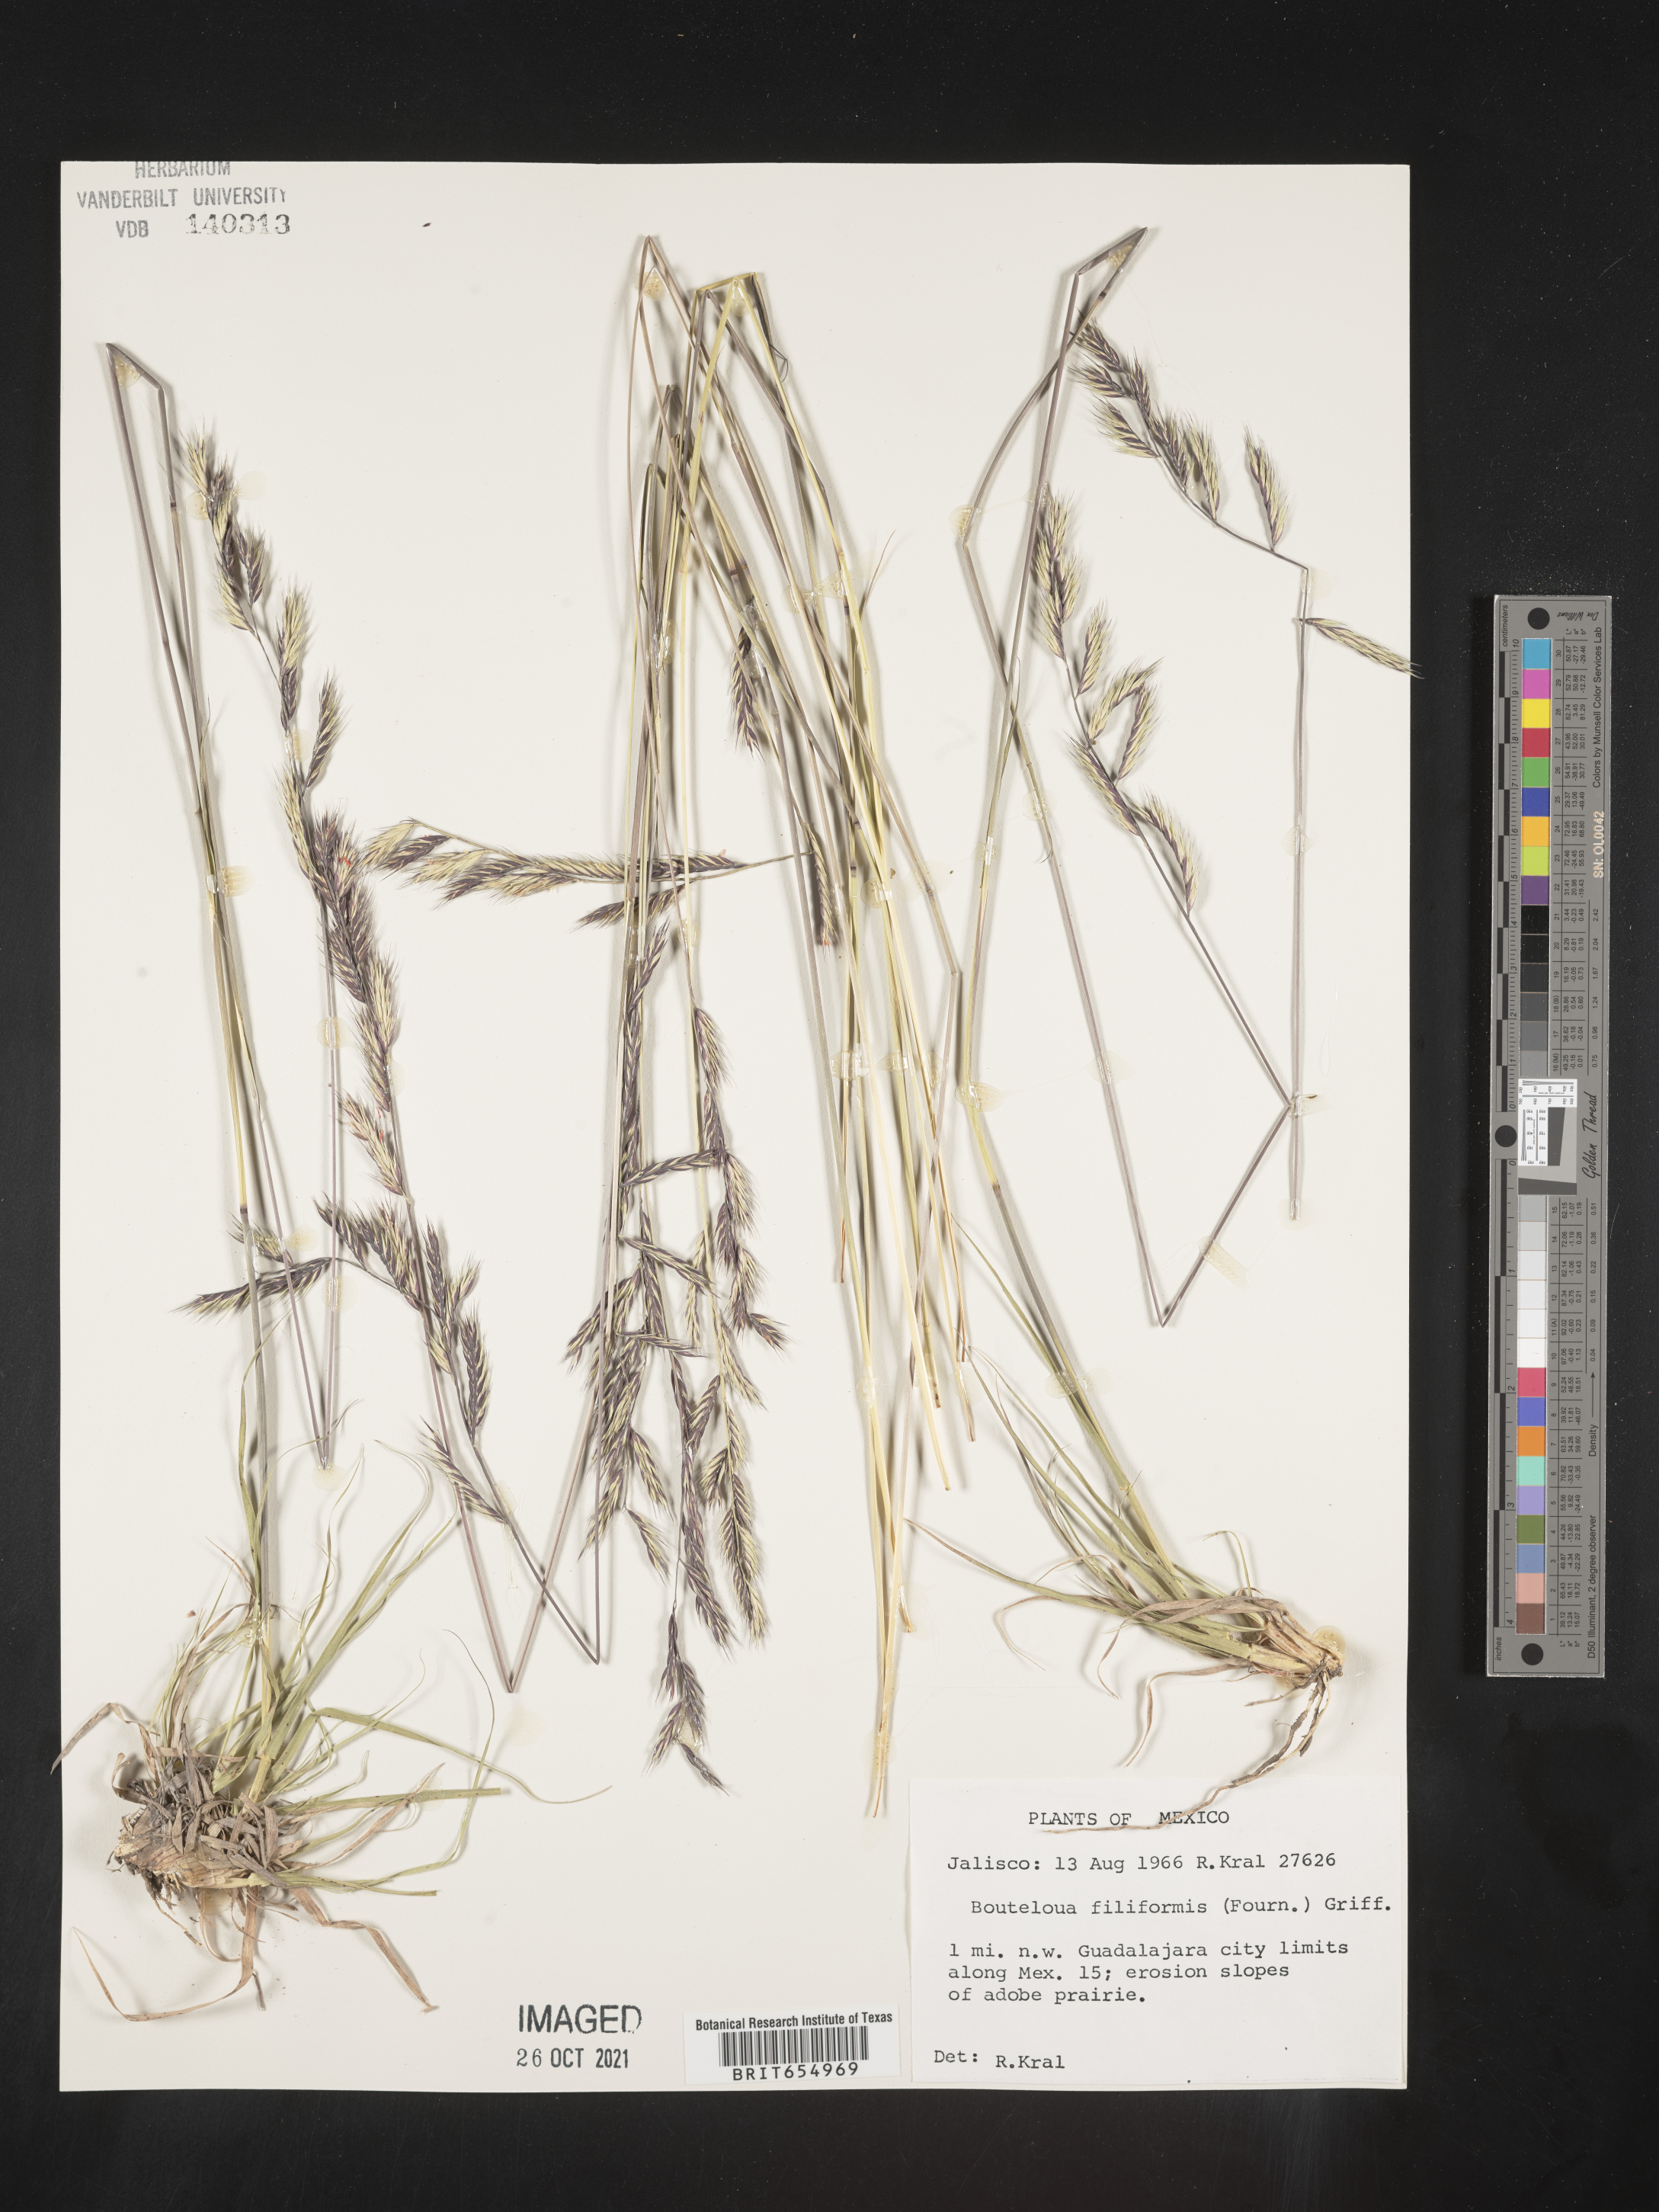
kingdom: Plantae
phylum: Tracheophyta
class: Liliopsida
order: Poales
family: Poaceae
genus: Bouteloua
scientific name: Bouteloua
